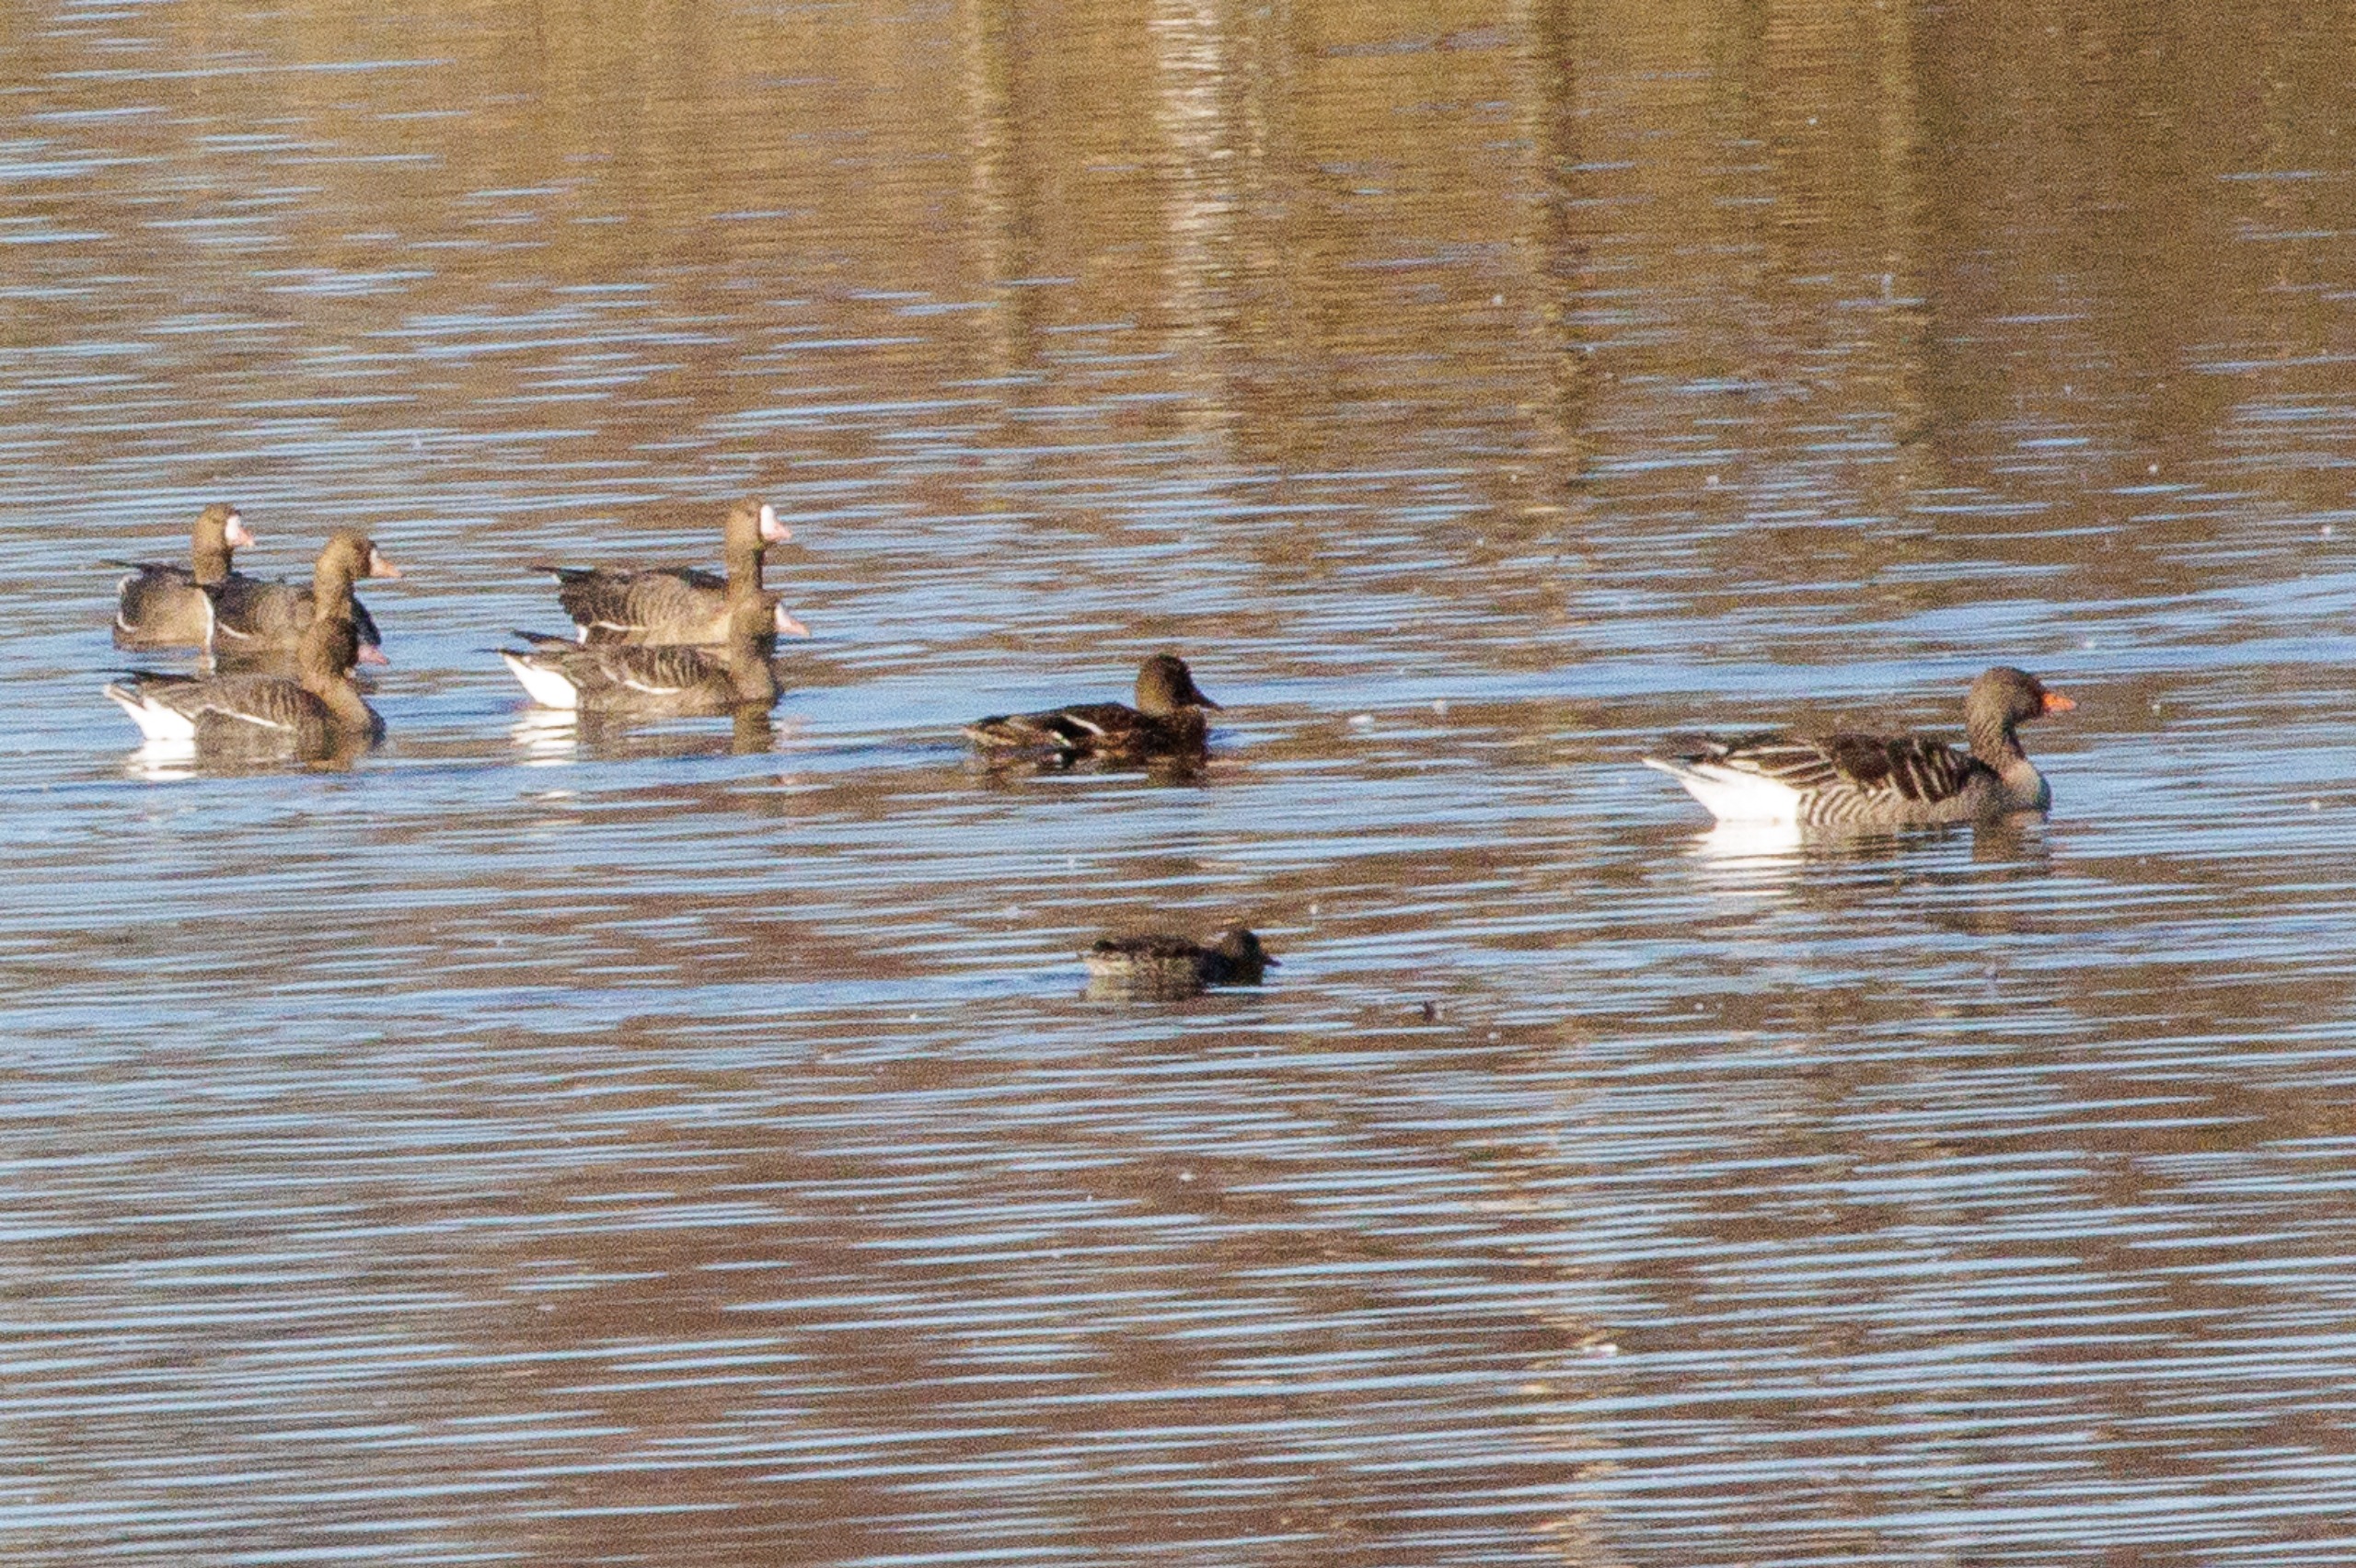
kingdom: Animalia
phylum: Chordata
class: Aves
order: Podicipediformes
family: Podicipedidae
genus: Tachybaptus
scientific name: Tachybaptus ruficollis
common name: Lille lappedykker
